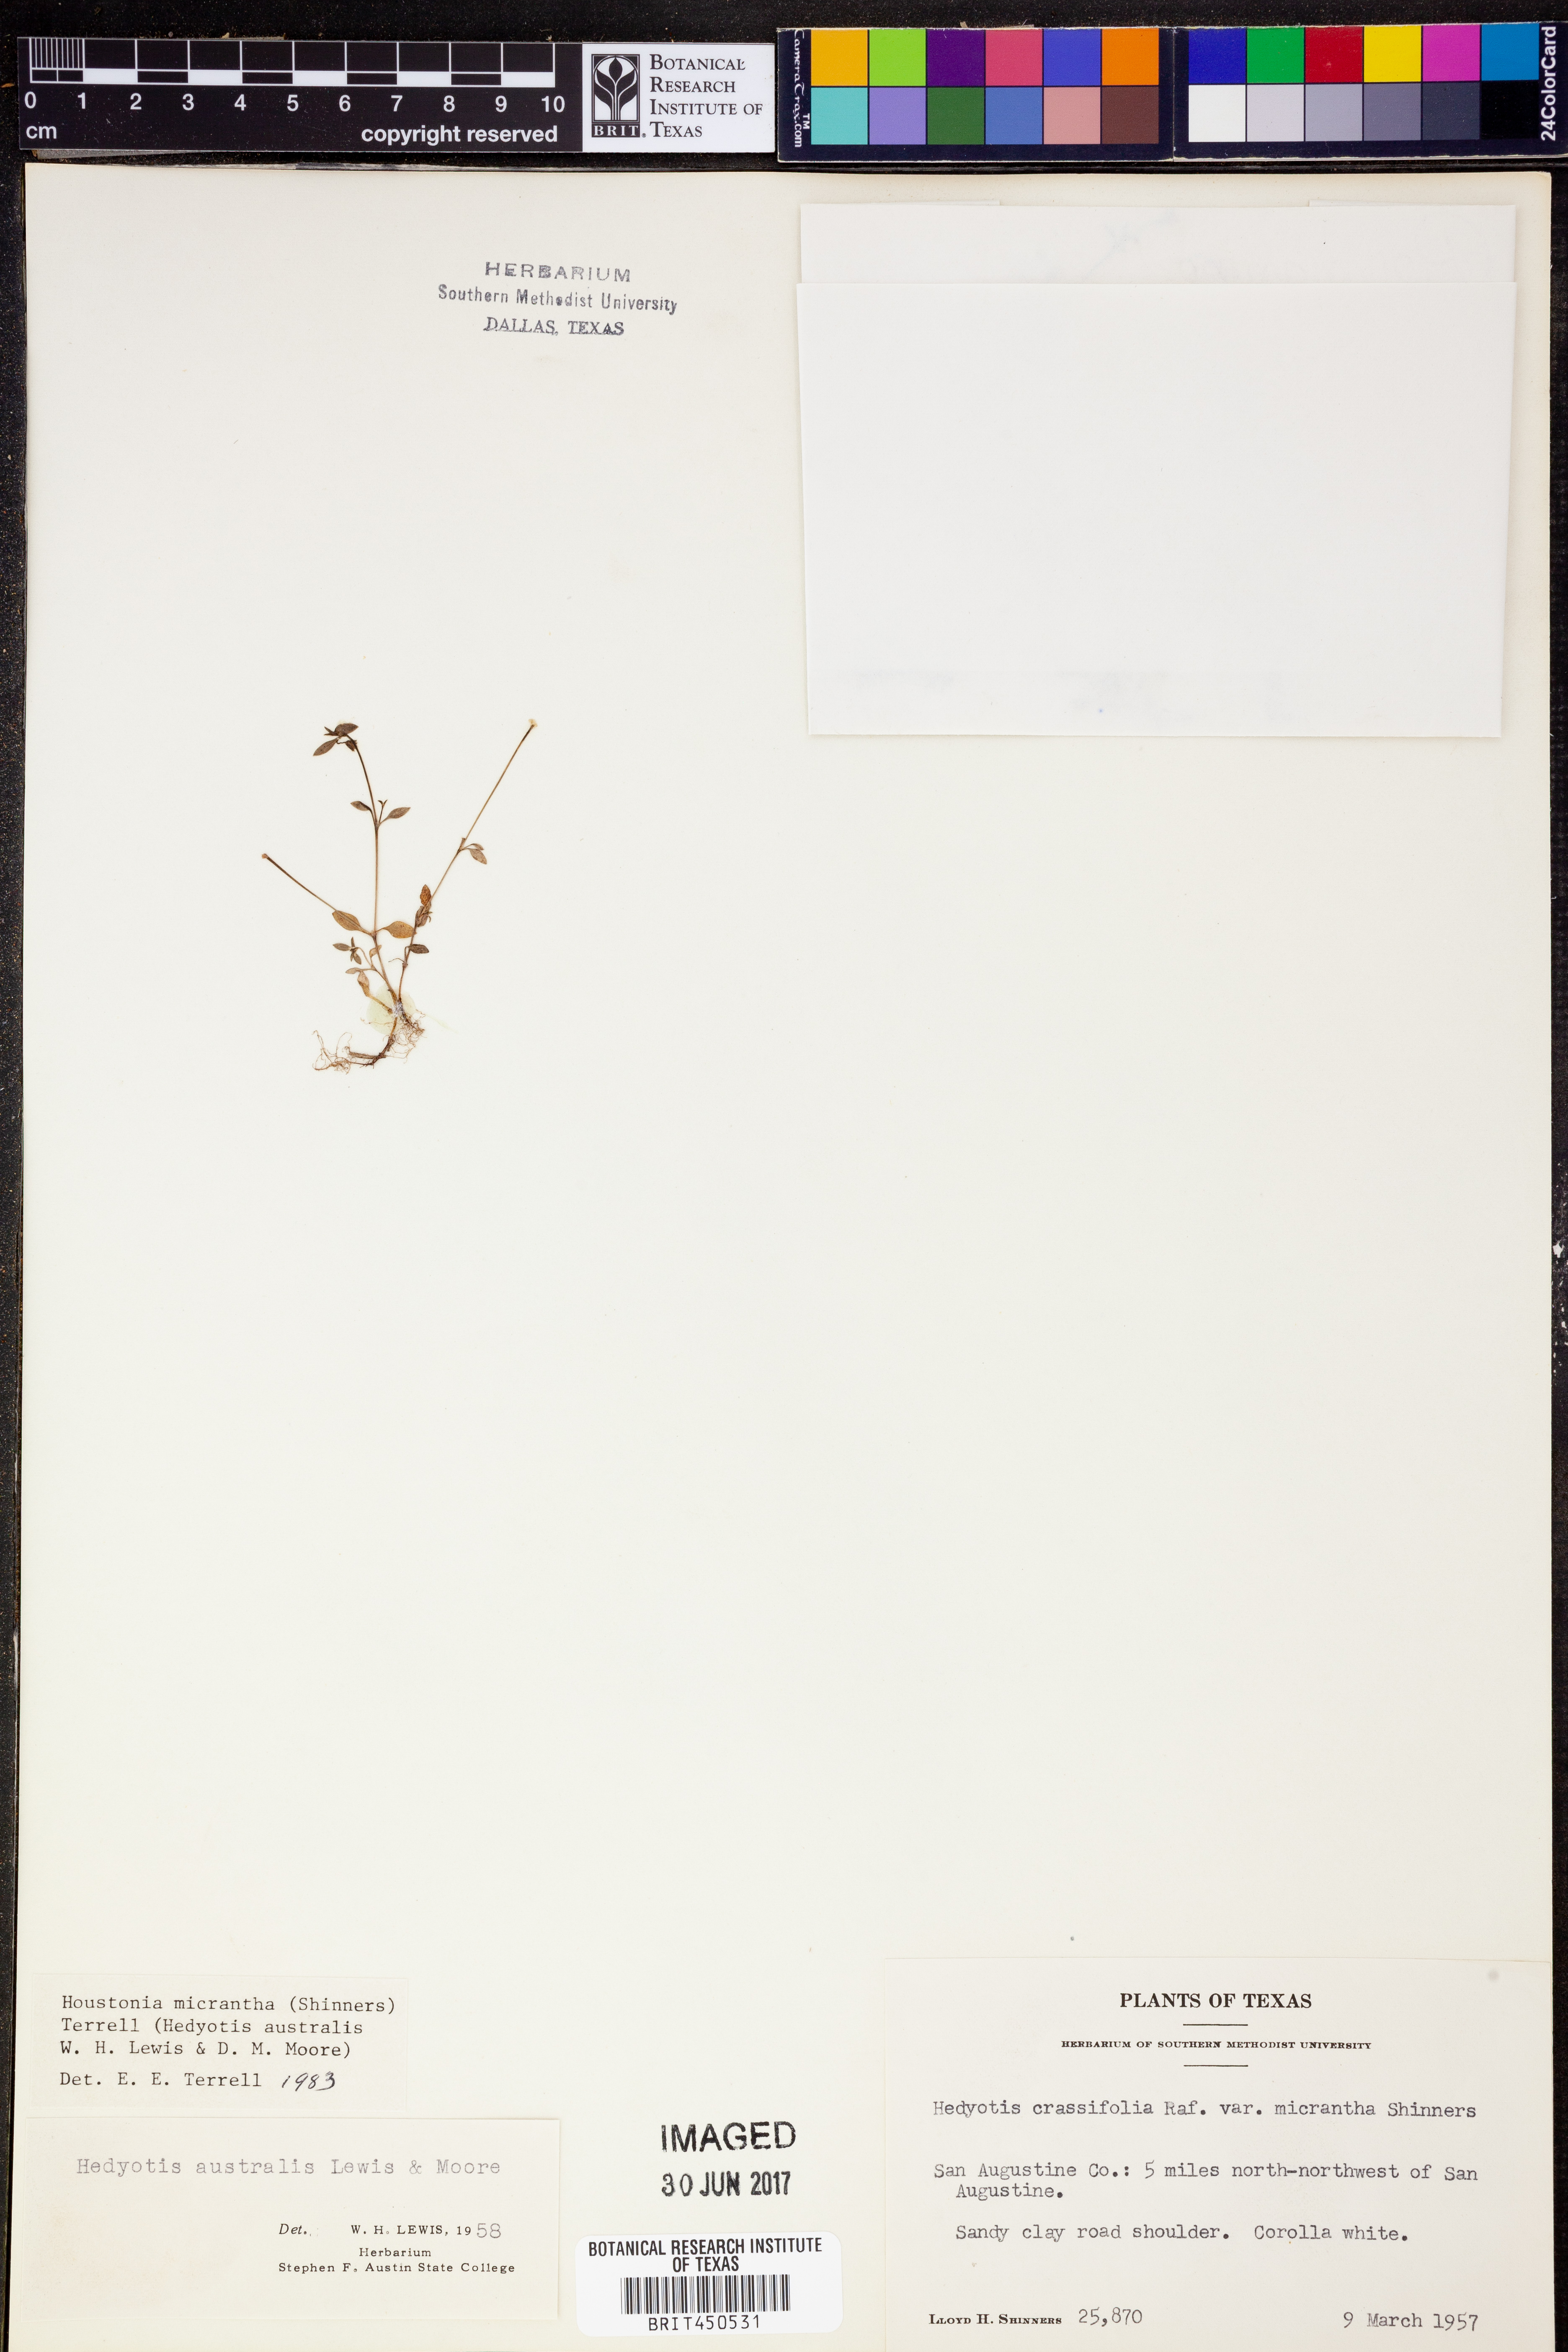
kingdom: Plantae
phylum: Tracheophyta
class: Magnoliopsida
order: Gentianales
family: Rubiaceae
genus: Houstonia
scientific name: Houstonia micrantha
